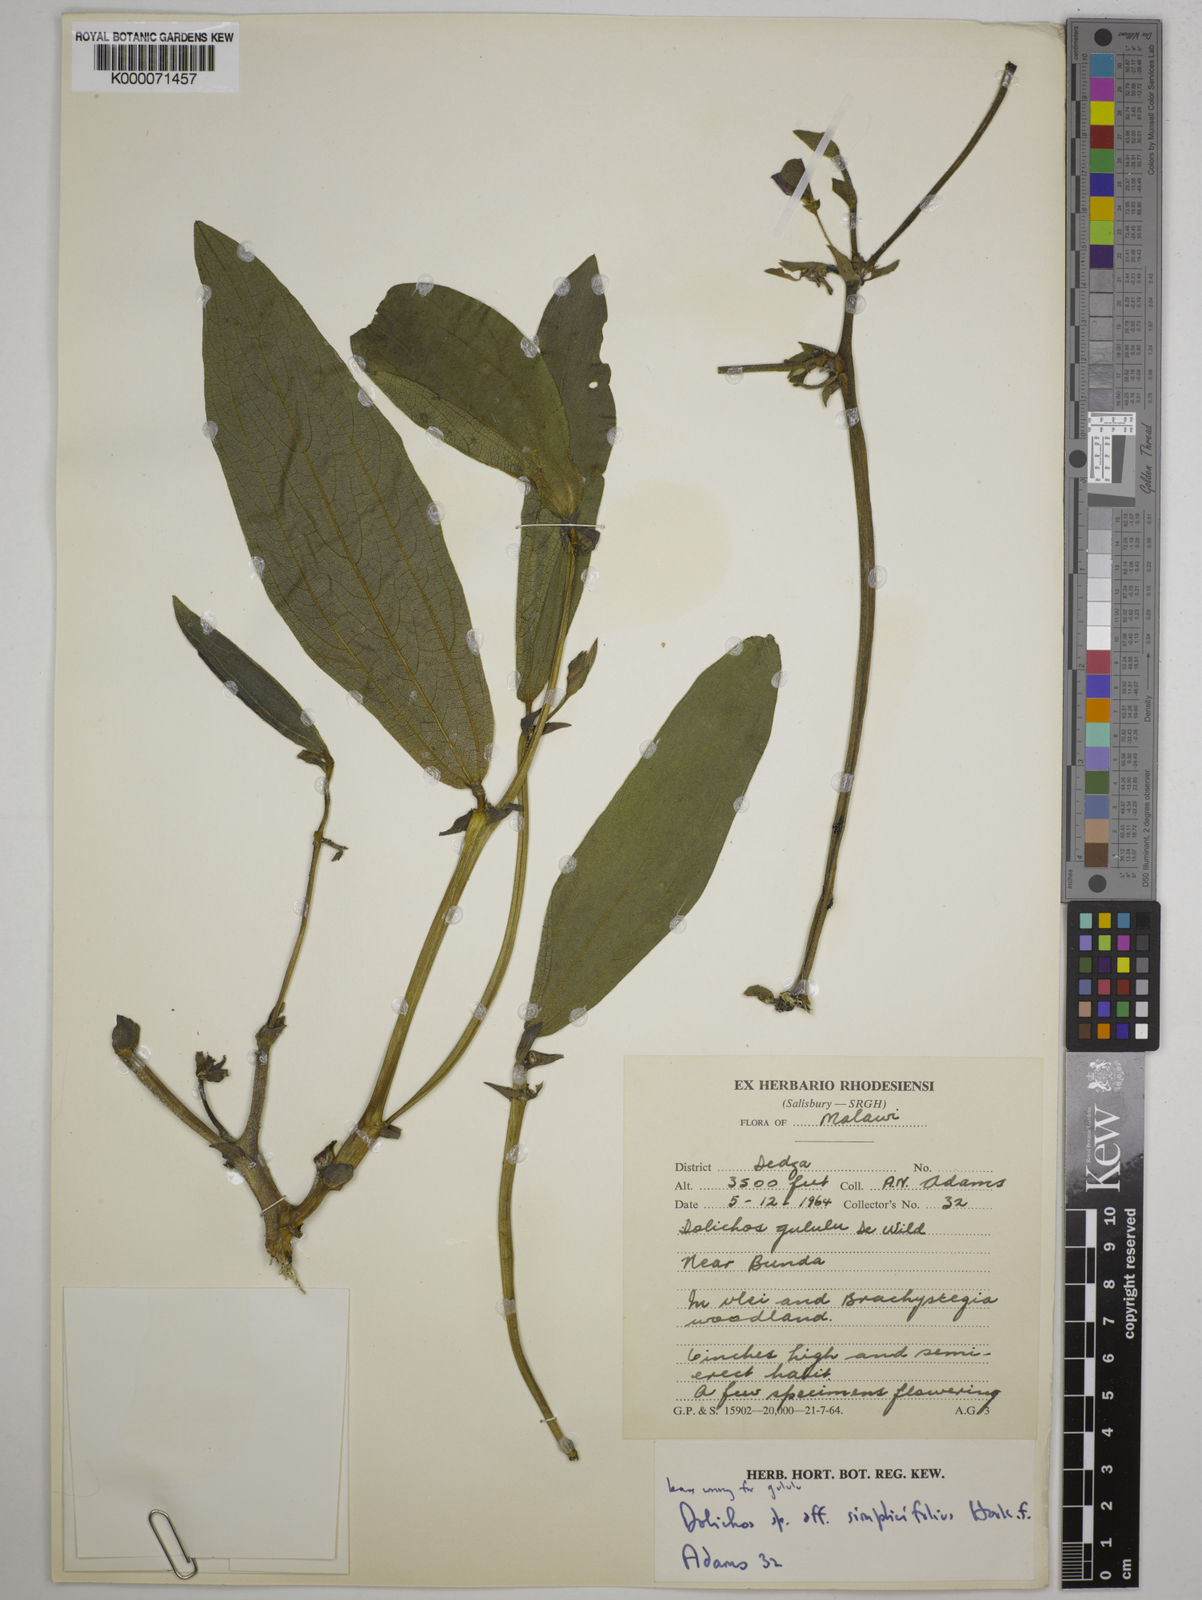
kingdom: Plantae
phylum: Tracheophyta
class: Magnoliopsida
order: Fabales
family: Fabaceae
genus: Dolichos
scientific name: Dolichos simplicifolius
